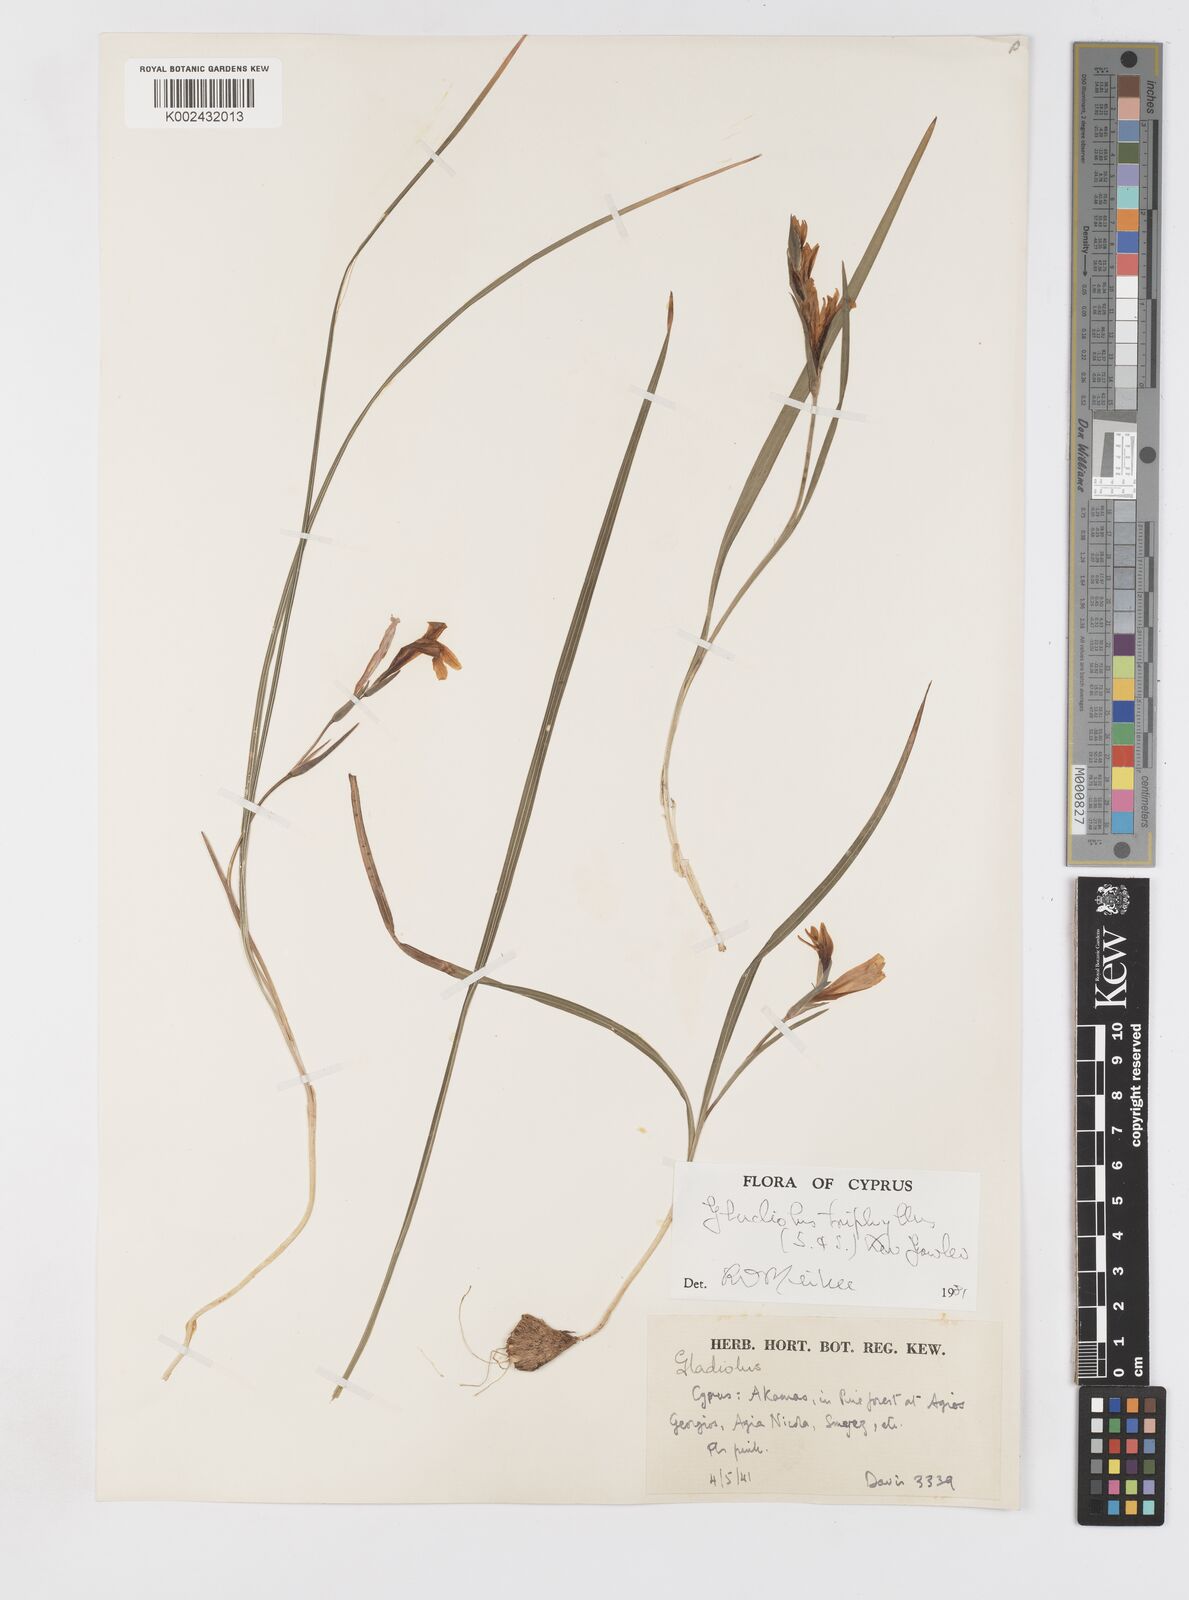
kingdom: Plantae
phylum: Tracheophyta
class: Liliopsida
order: Asparagales
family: Iridaceae
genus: Gladiolus
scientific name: Gladiolus triphyllus
